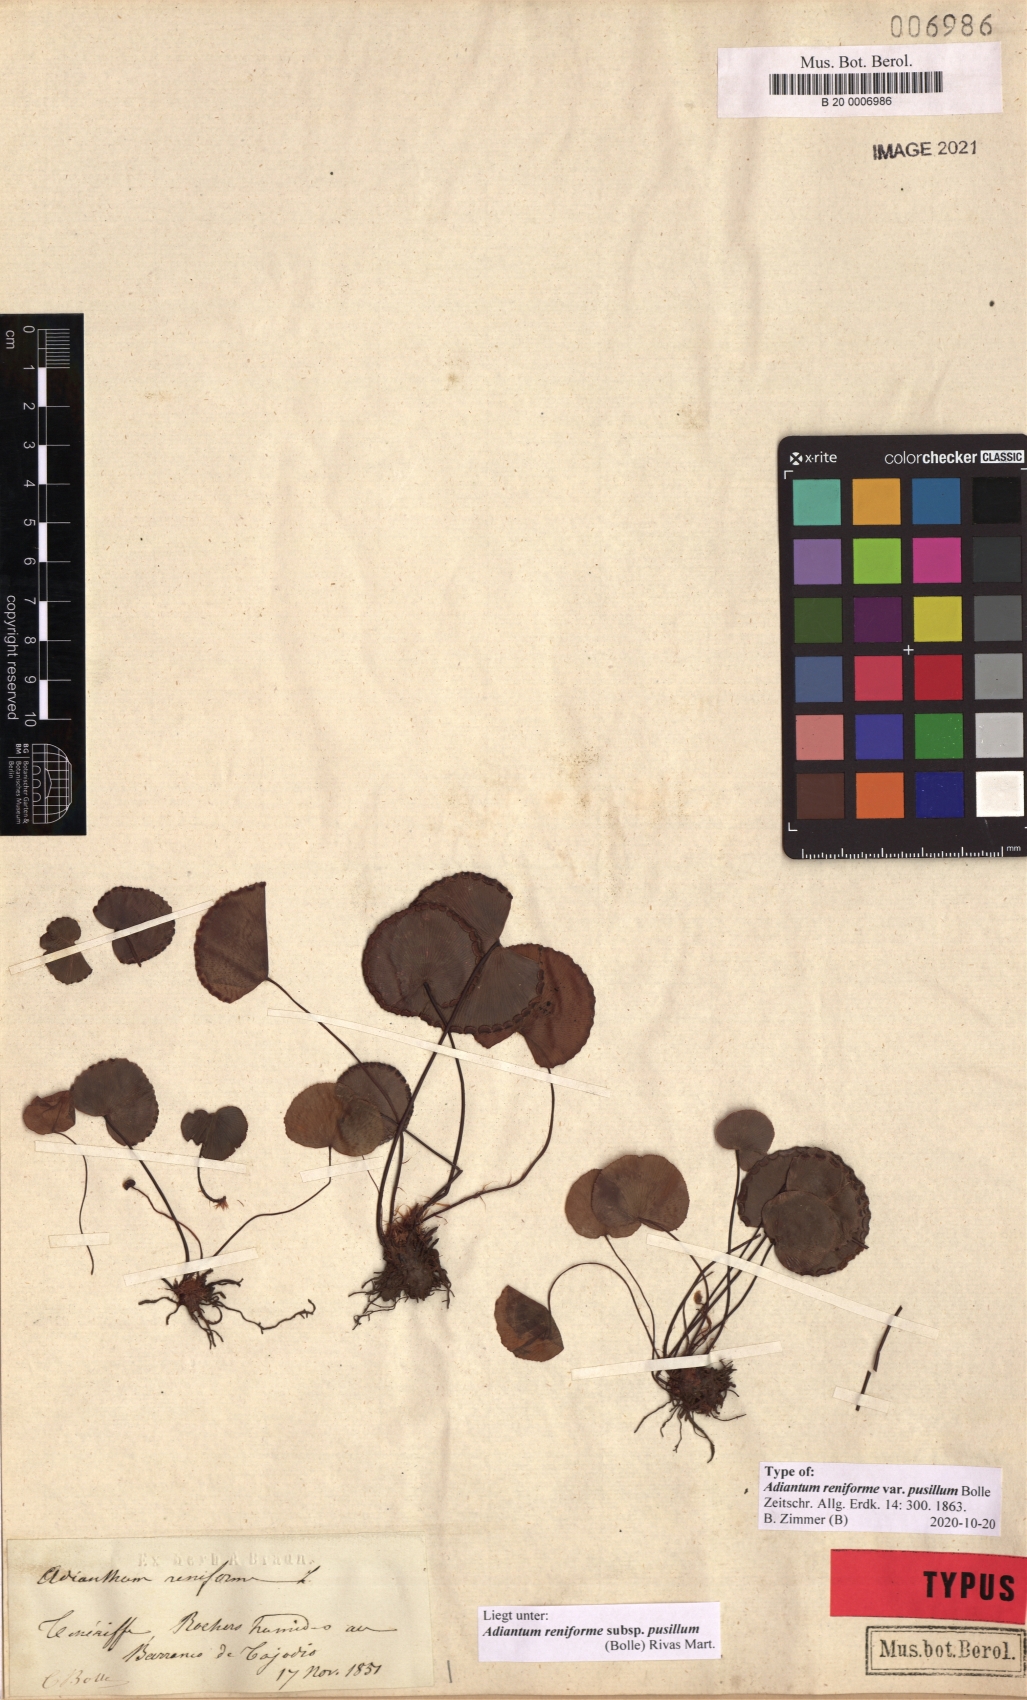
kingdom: Plantae
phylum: Tracheophyta
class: Polypodiopsida
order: Polypodiales
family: Pteridaceae
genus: Adiantum
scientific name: Adiantum reniforme
